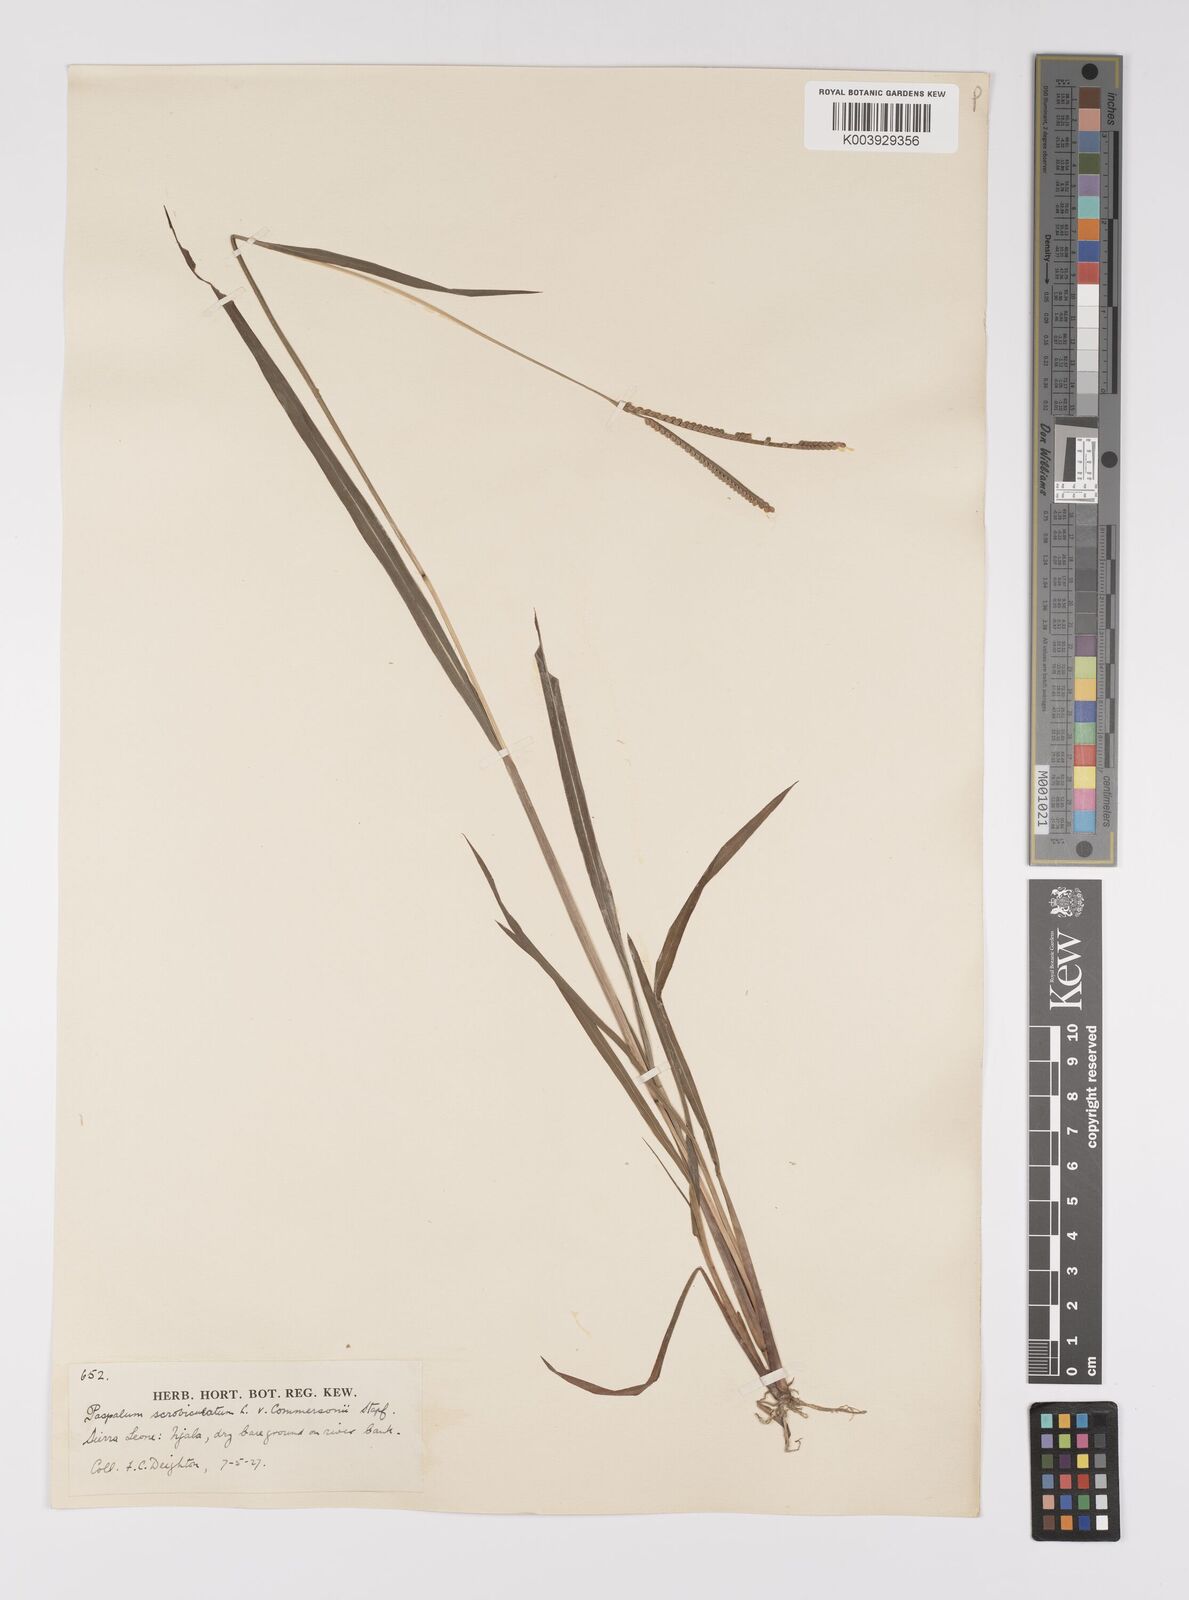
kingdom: Plantae
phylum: Tracheophyta
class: Liliopsida
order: Poales
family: Poaceae
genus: Paspalum
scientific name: Paspalum scrobiculatum
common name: Kodo millet
